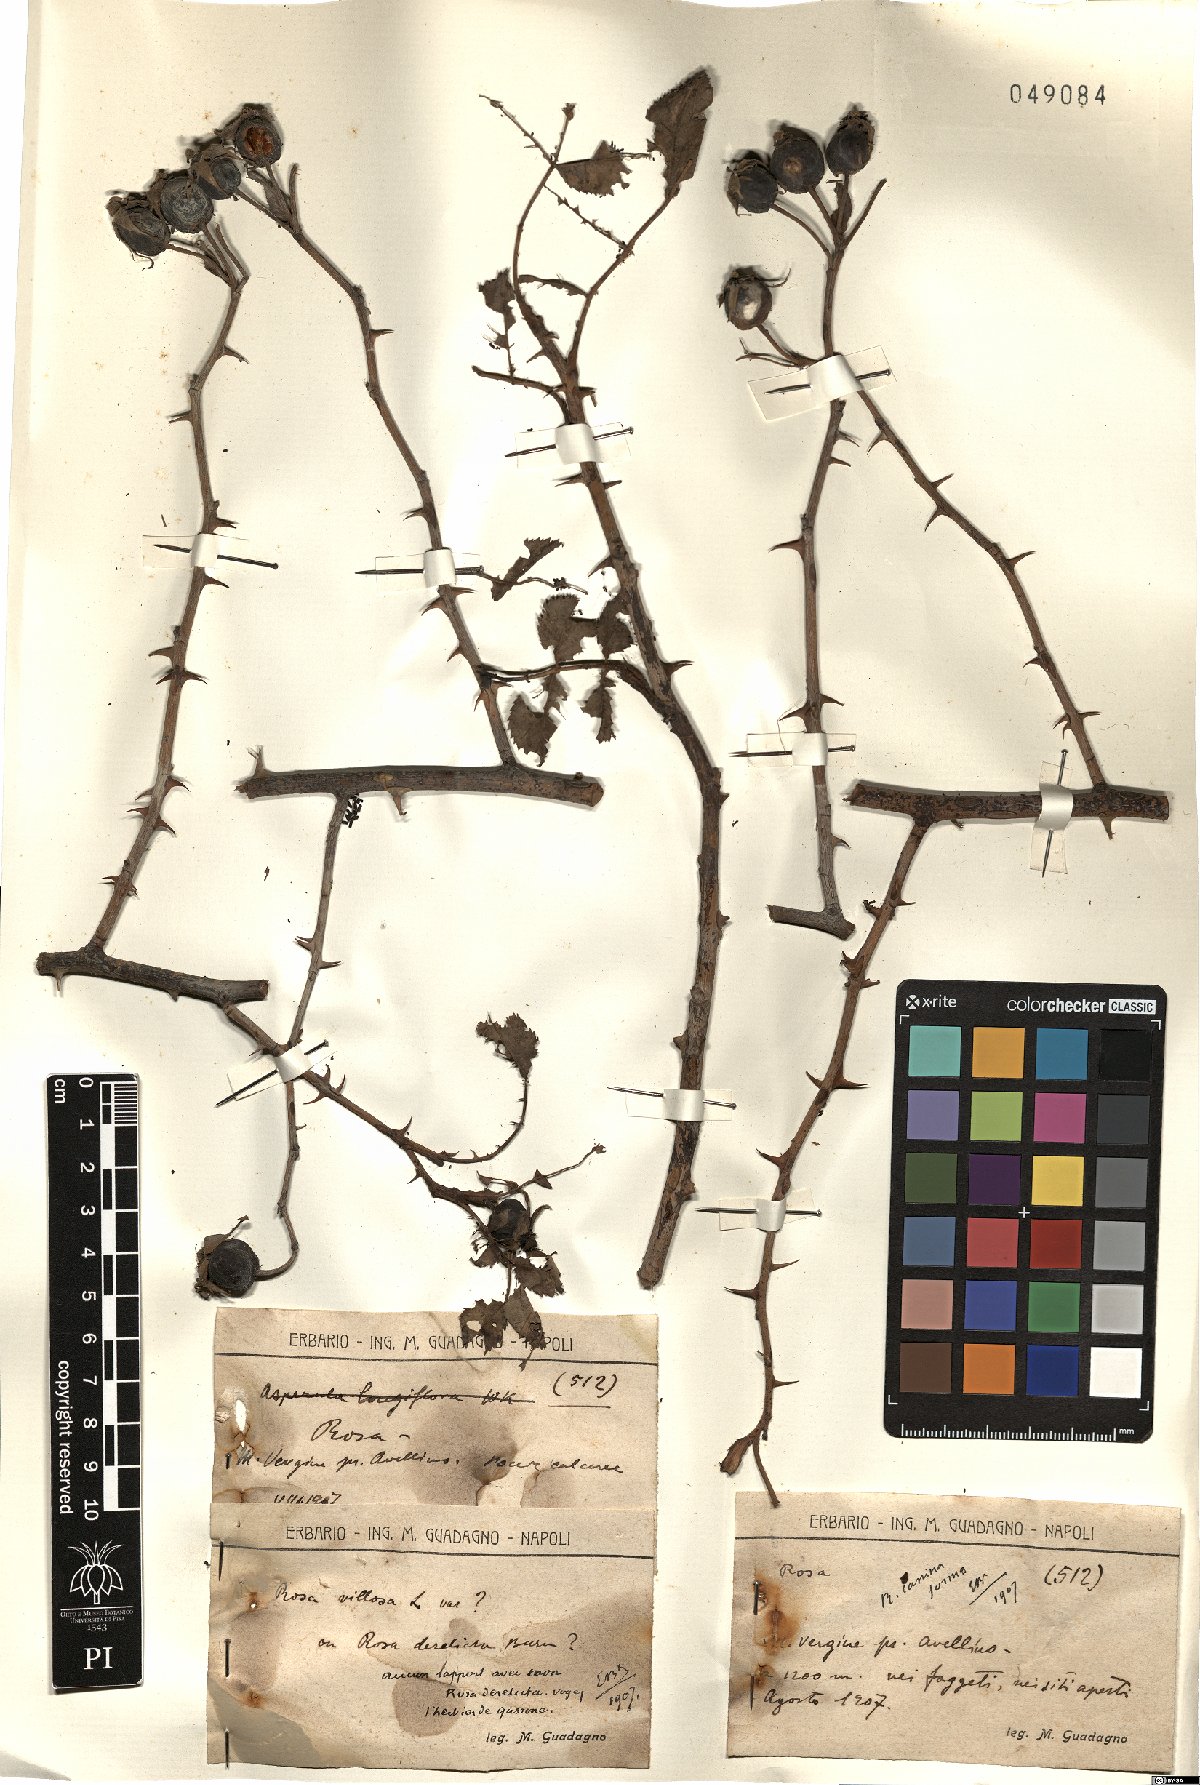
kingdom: Plantae
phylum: Tracheophyta
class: Magnoliopsida
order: Rosales
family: Rosaceae
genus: Rosa
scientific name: Rosa canina
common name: Dog rose
